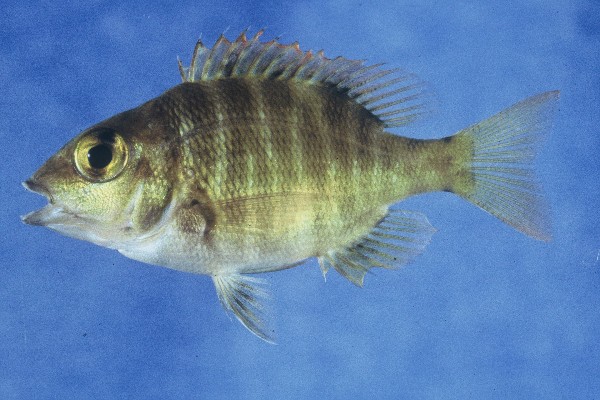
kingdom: Animalia
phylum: Chordata
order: Perciformes
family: Lethrinidae
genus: Lethrinus
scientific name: Lethrinus mahsena
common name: Sky emperor
